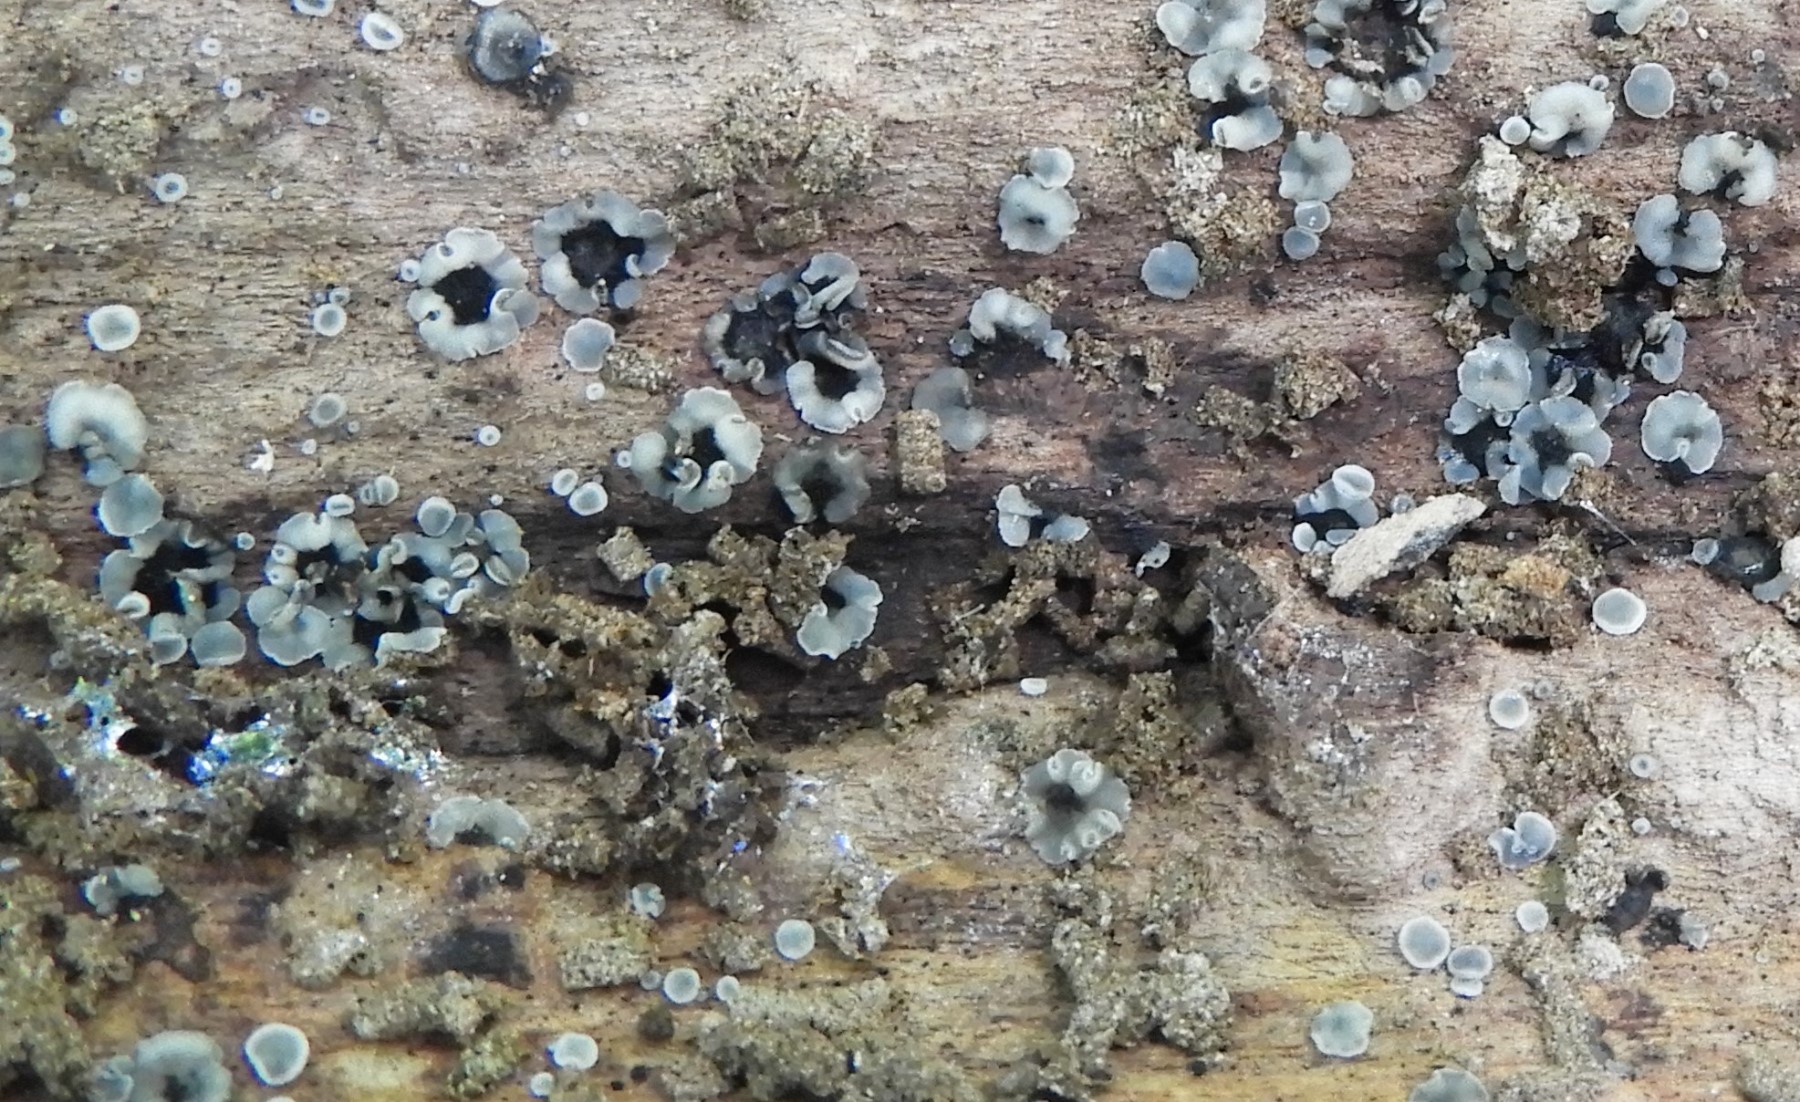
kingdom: Fungi
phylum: Ascomycota
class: Leotiomycetes
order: Helotiales
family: Mollisiaceae
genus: Mollisia
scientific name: Mollisia
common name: gråskive
